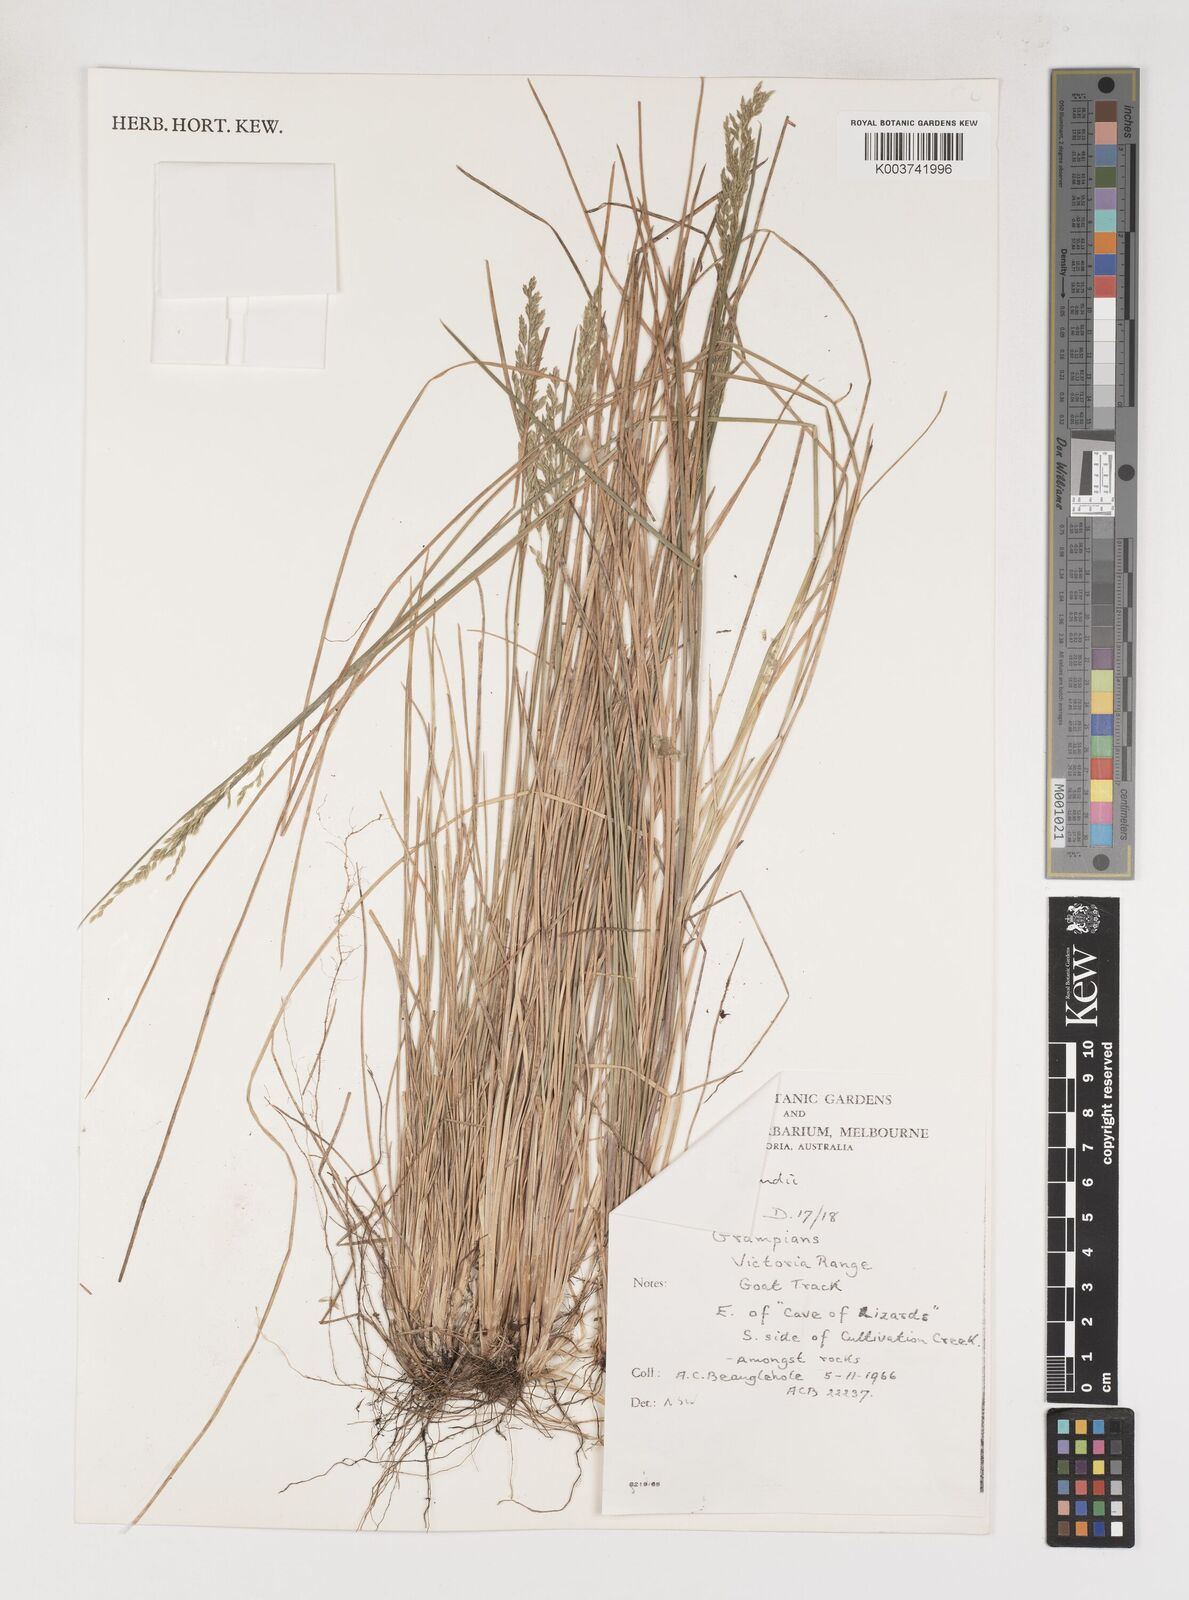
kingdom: Plantae
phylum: Tracheophyta
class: Liliopsida
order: Poales
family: Poaceae
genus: Poa
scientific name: Poa clelandii
